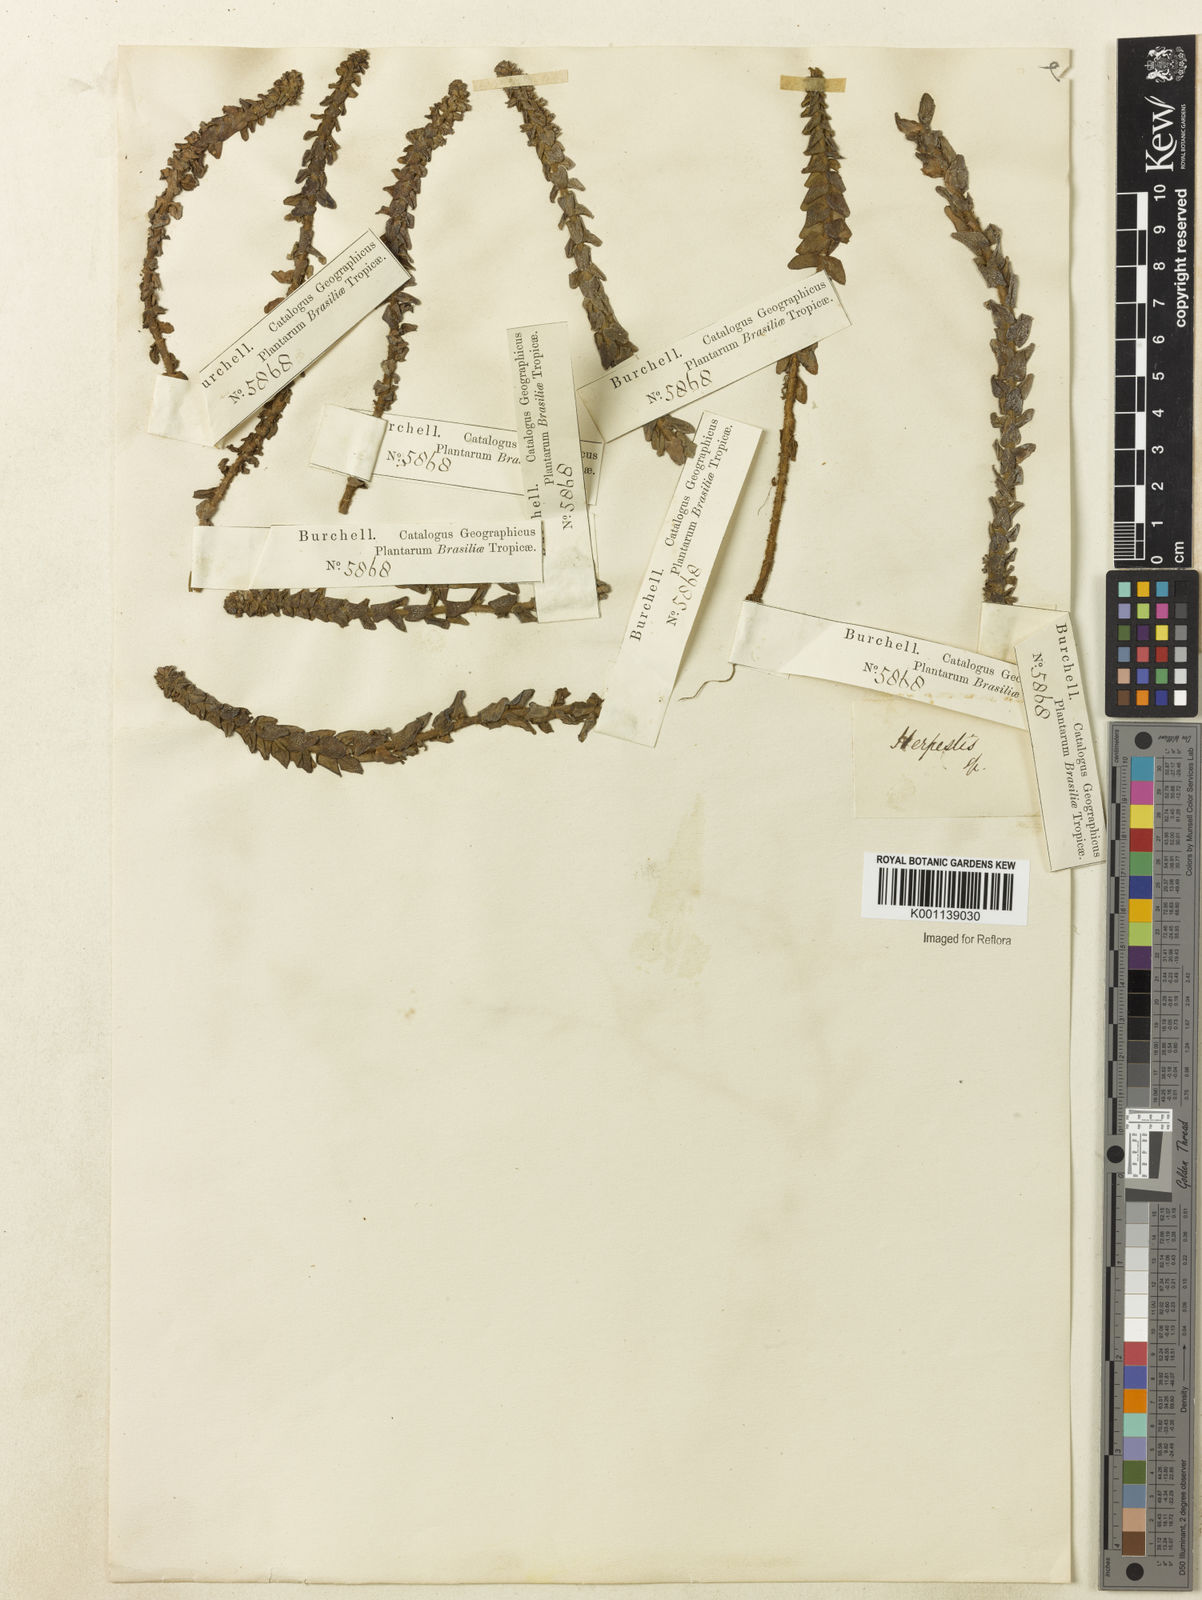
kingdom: Plantae
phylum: Tracheophyta
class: Magnoliopsida
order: Lamiales
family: Plantaginaceae
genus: Bacopa
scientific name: Bacopa
